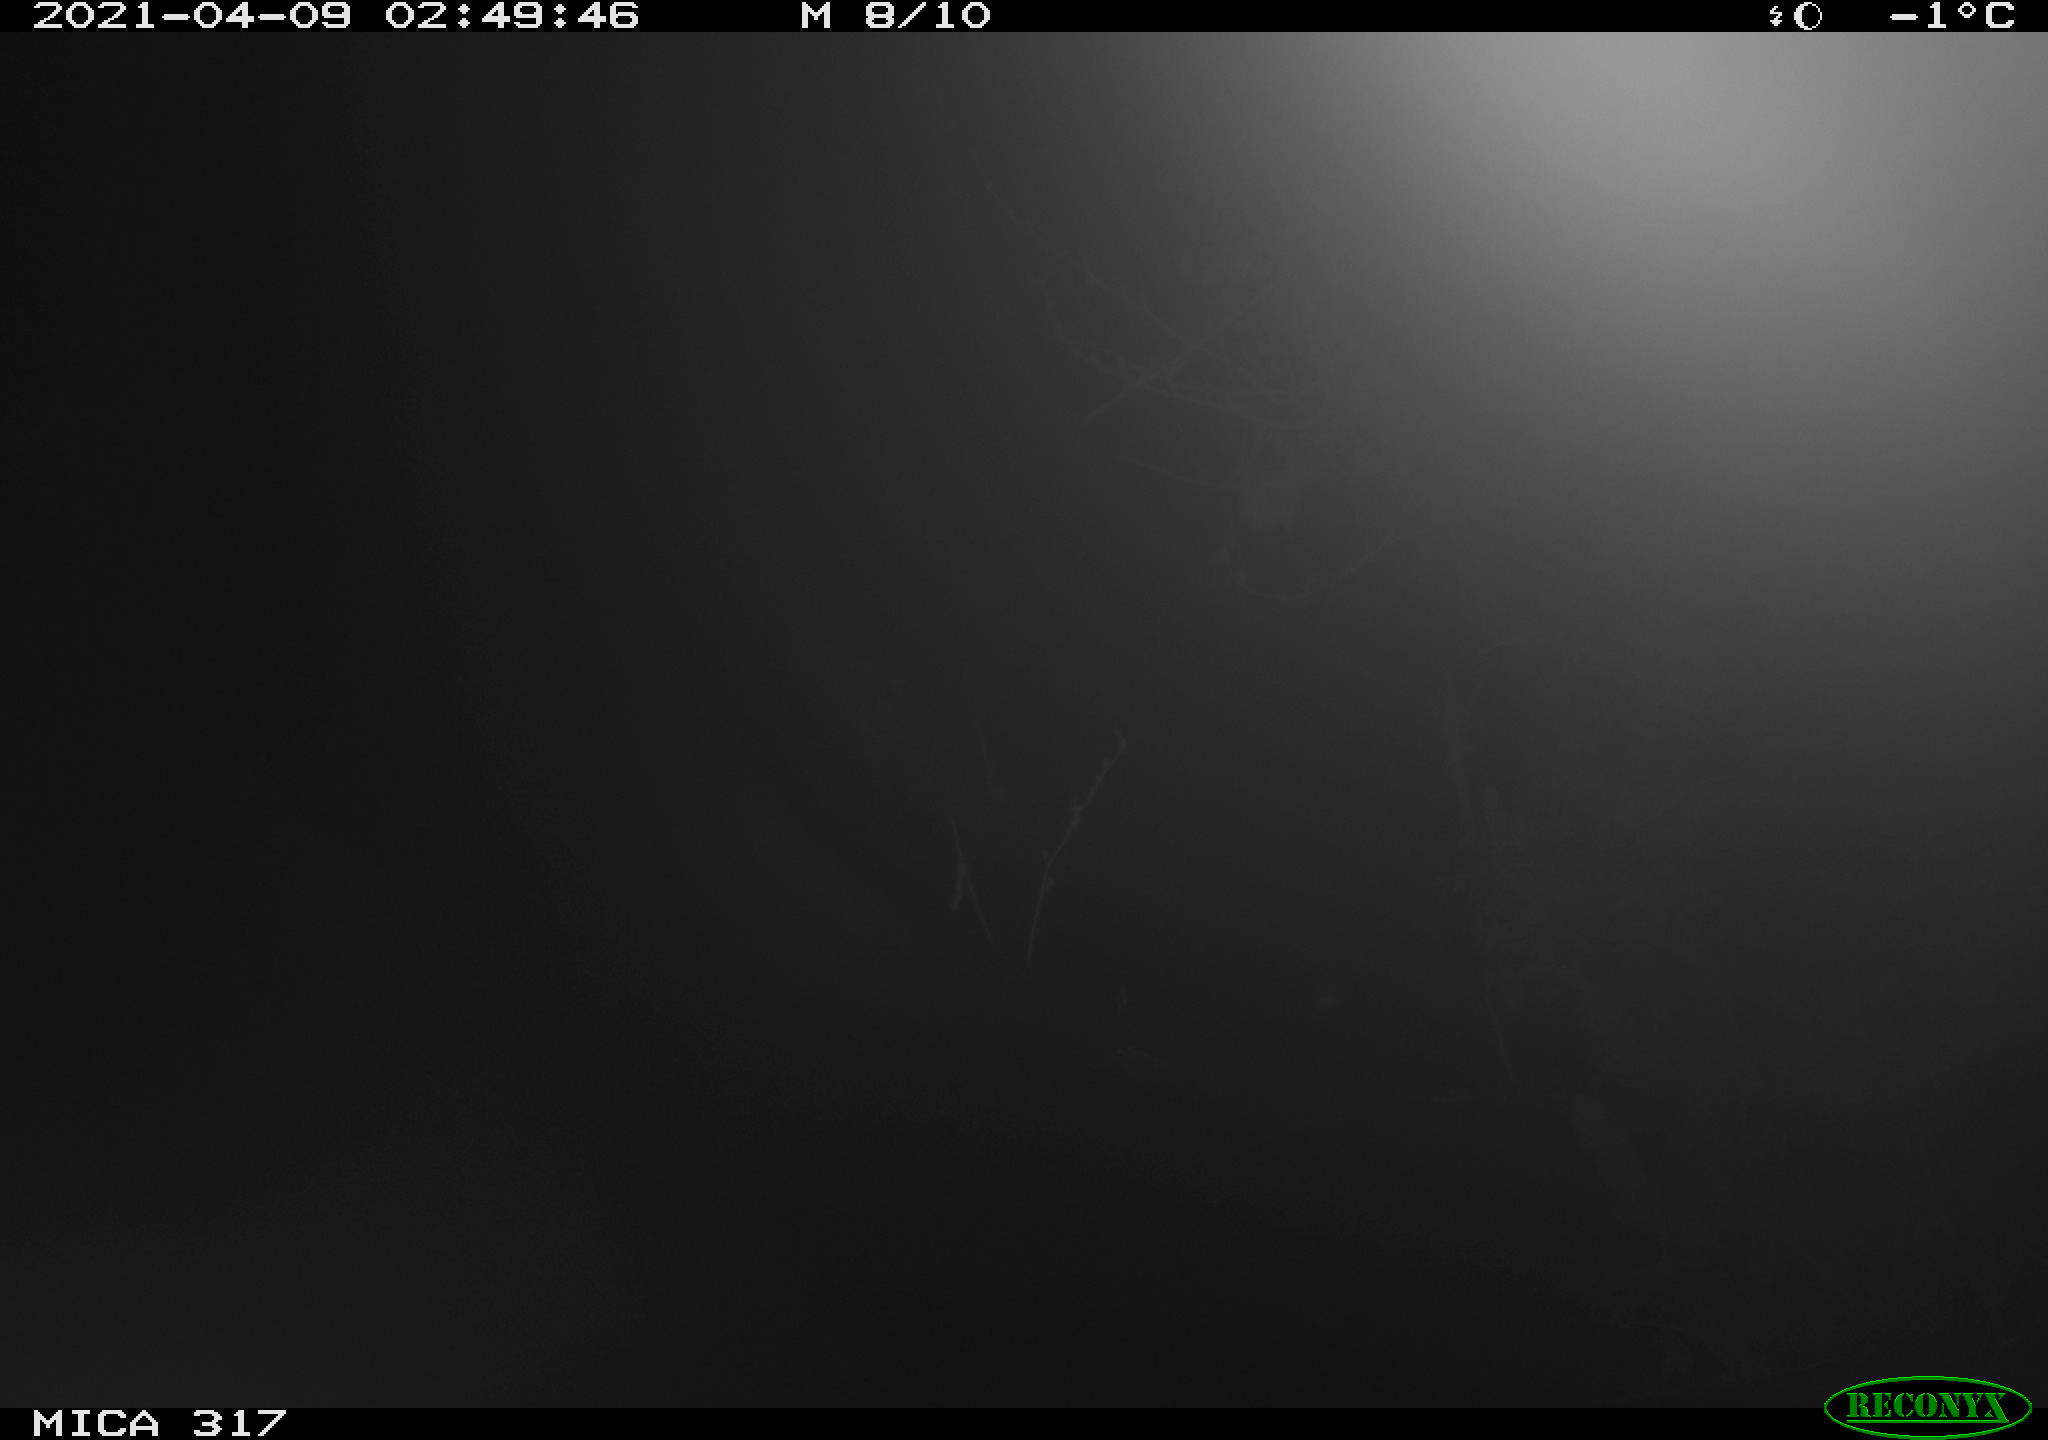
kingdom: Animalia
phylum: Chordata
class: Aves
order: Anseriformes
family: Anatidae
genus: Anas
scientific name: Anas platyrhynchos
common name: Mallard
